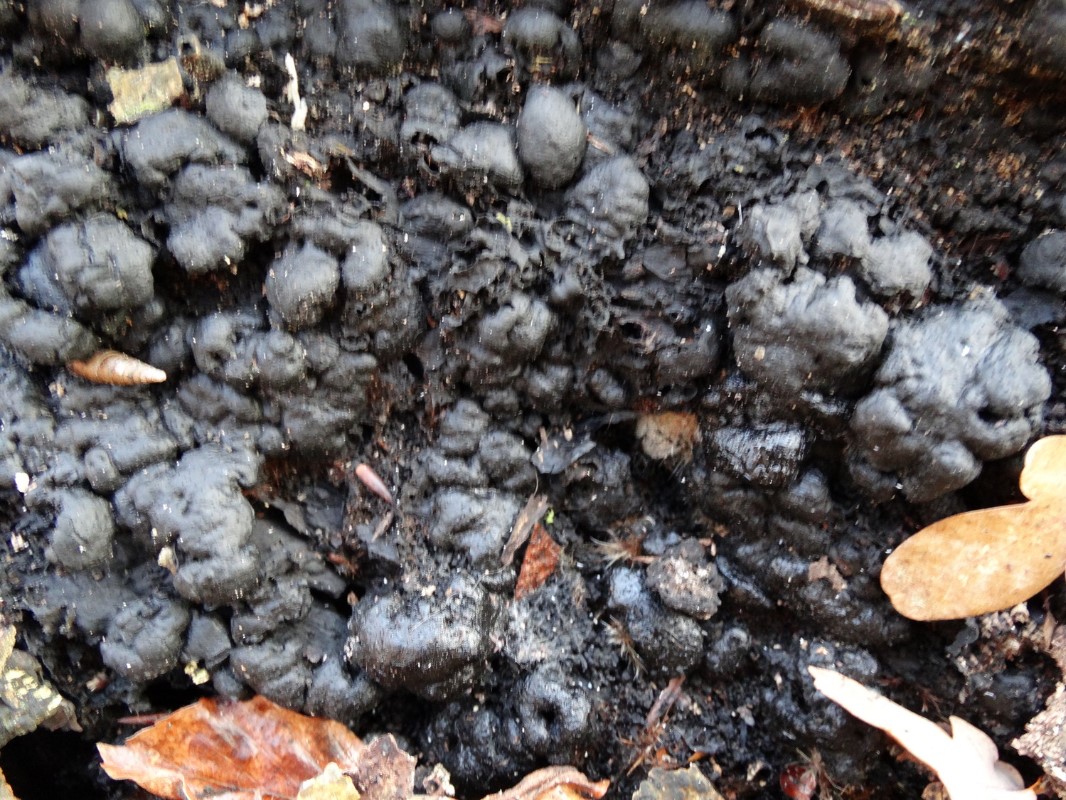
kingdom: Fungi
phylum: Ascomycota
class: Sordariomycetes
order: Xylariales
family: Xylariaceae
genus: Kretzschmaria
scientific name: Kretzschmaria deusta
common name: stor kulsvamp
